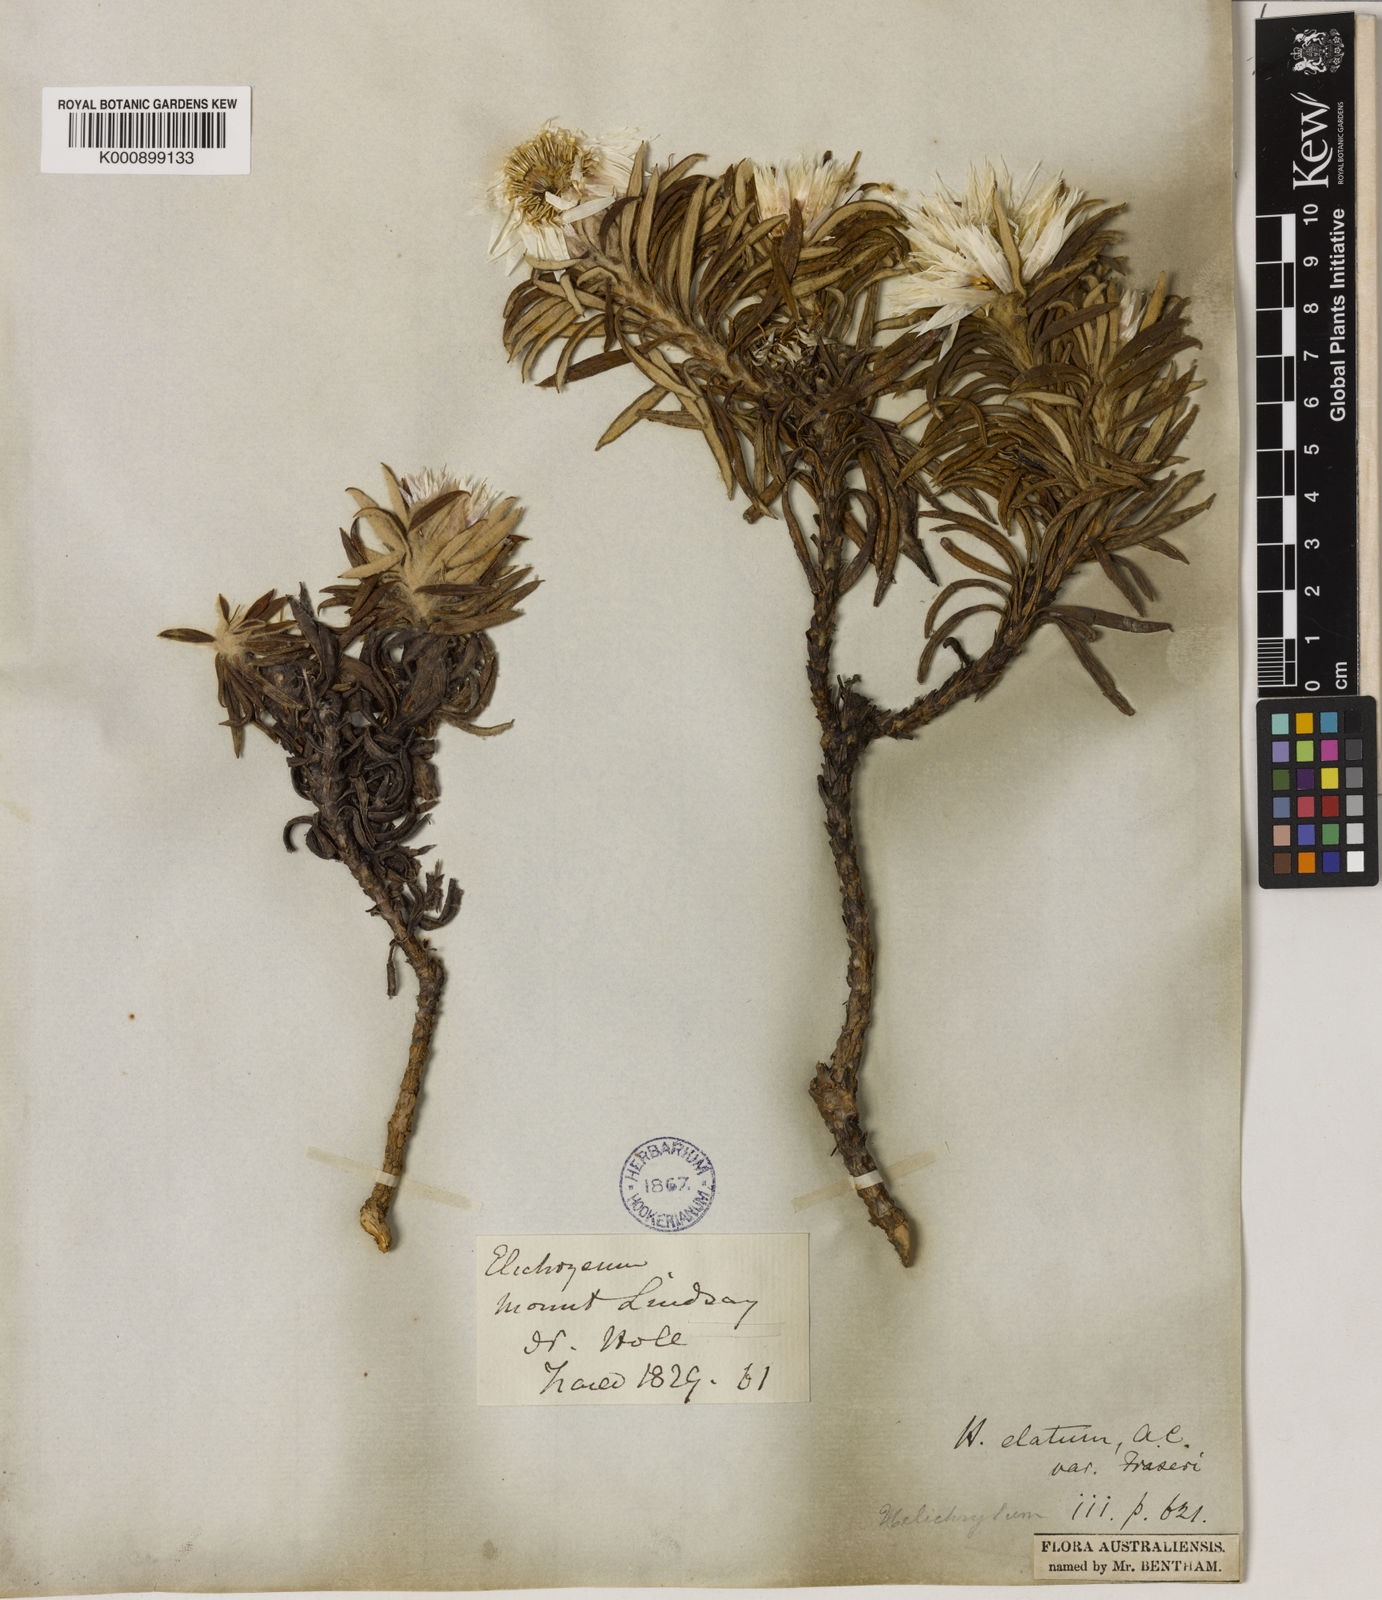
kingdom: Plantae
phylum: Tracheophyta
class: Magnoliopsida
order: Asterales
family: Asteraceae
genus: Leucozoma
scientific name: Leucozoma lindsayanum
